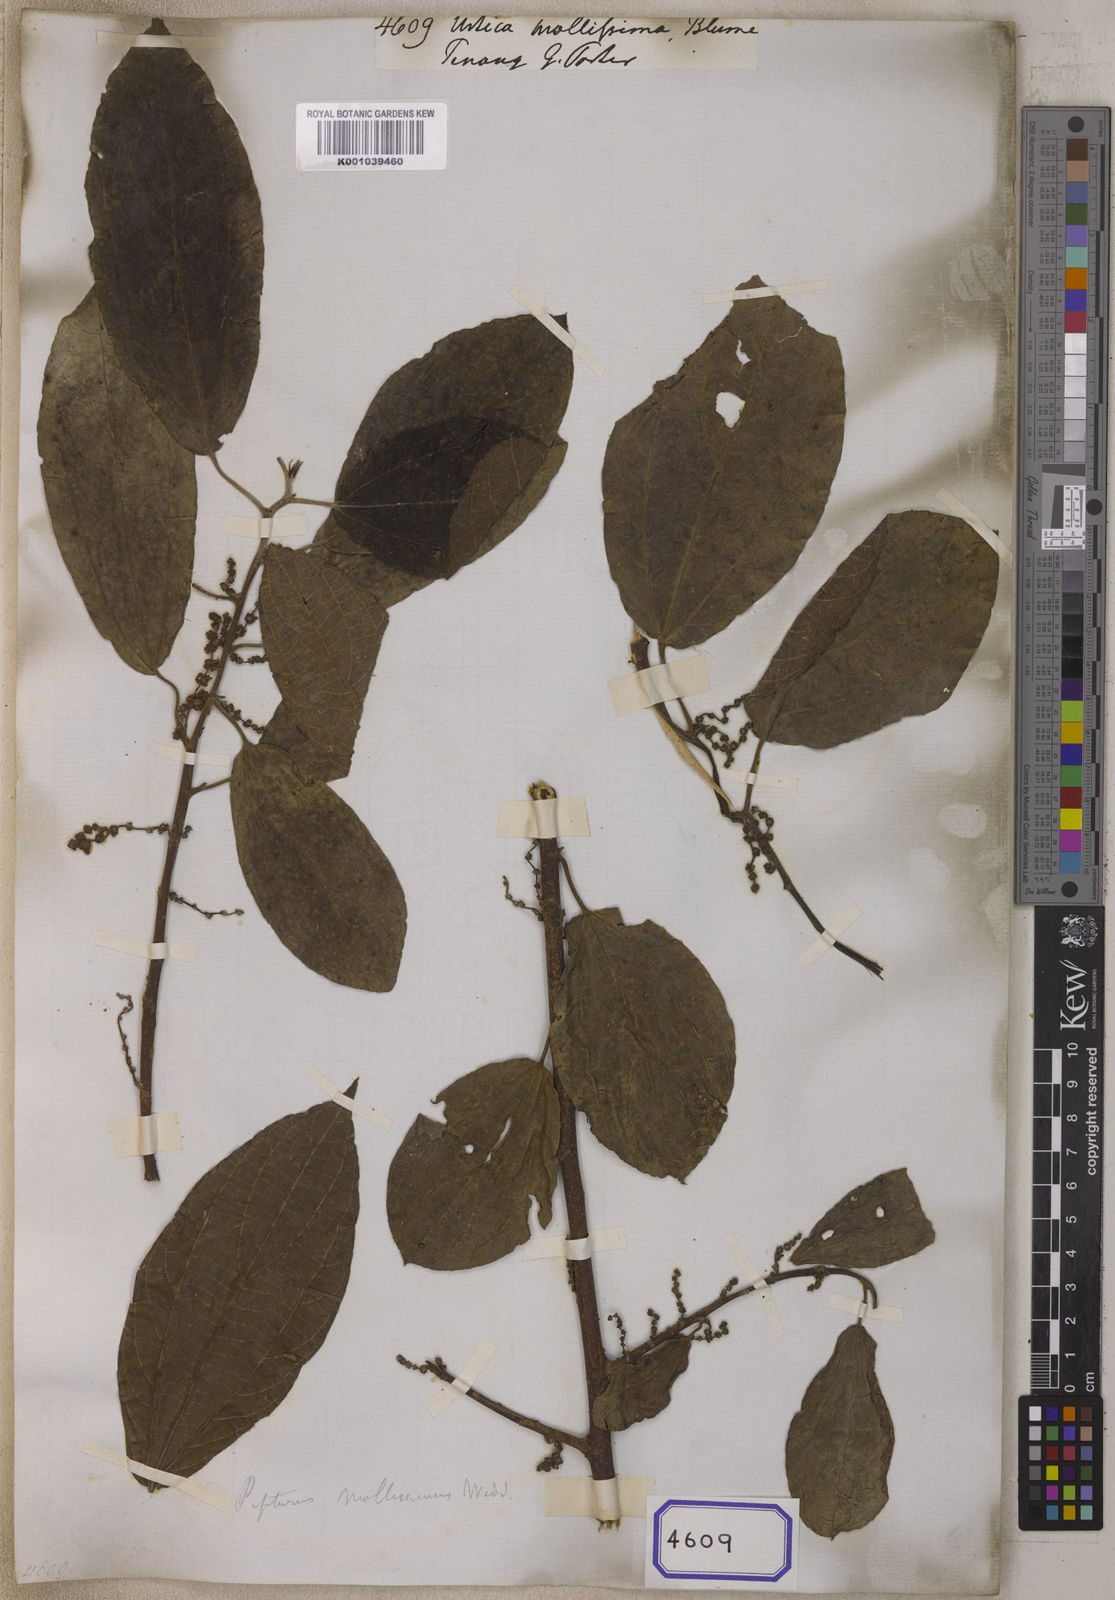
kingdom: Plantae
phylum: Tracheophyta
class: Magnoliopsida
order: Rosales
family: Urticaceae
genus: Nothocnide
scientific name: Nothocnide mollissima
